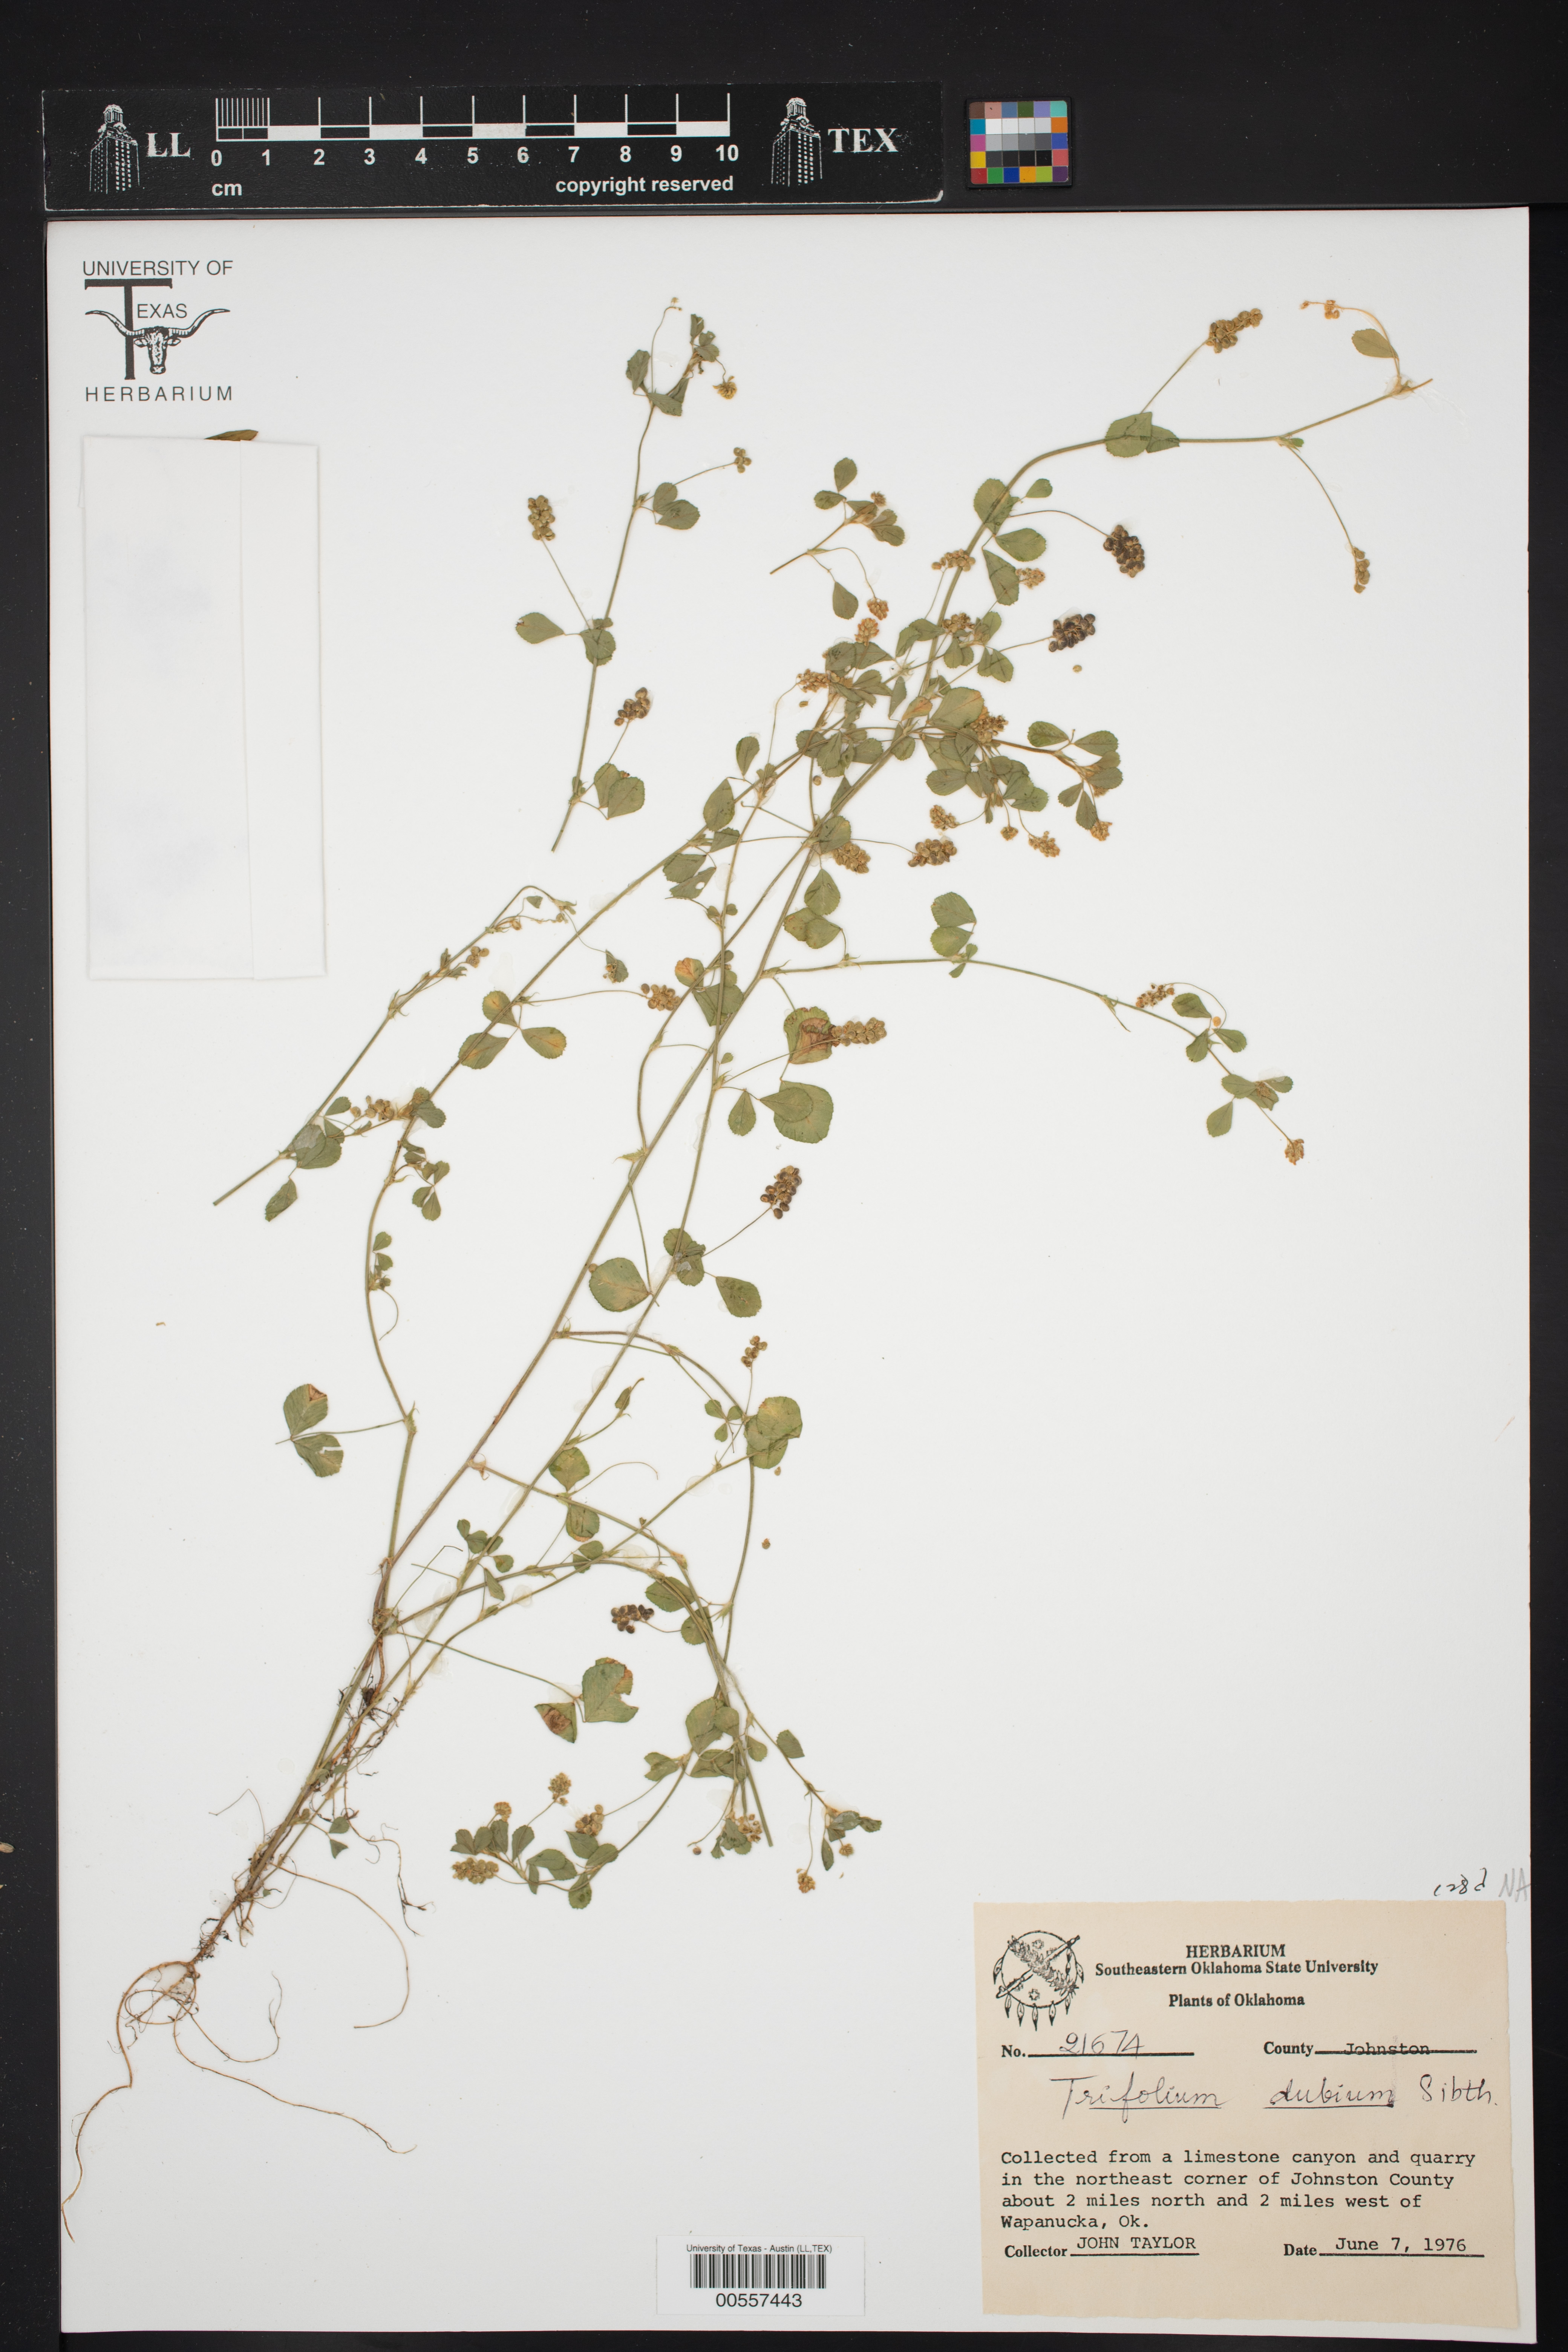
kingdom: Plantae
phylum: Tracheophyta
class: Magnoliopsida
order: Fabales
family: Fabaceae
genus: Trifolium
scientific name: Trifolium dubium
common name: Suckling clover
